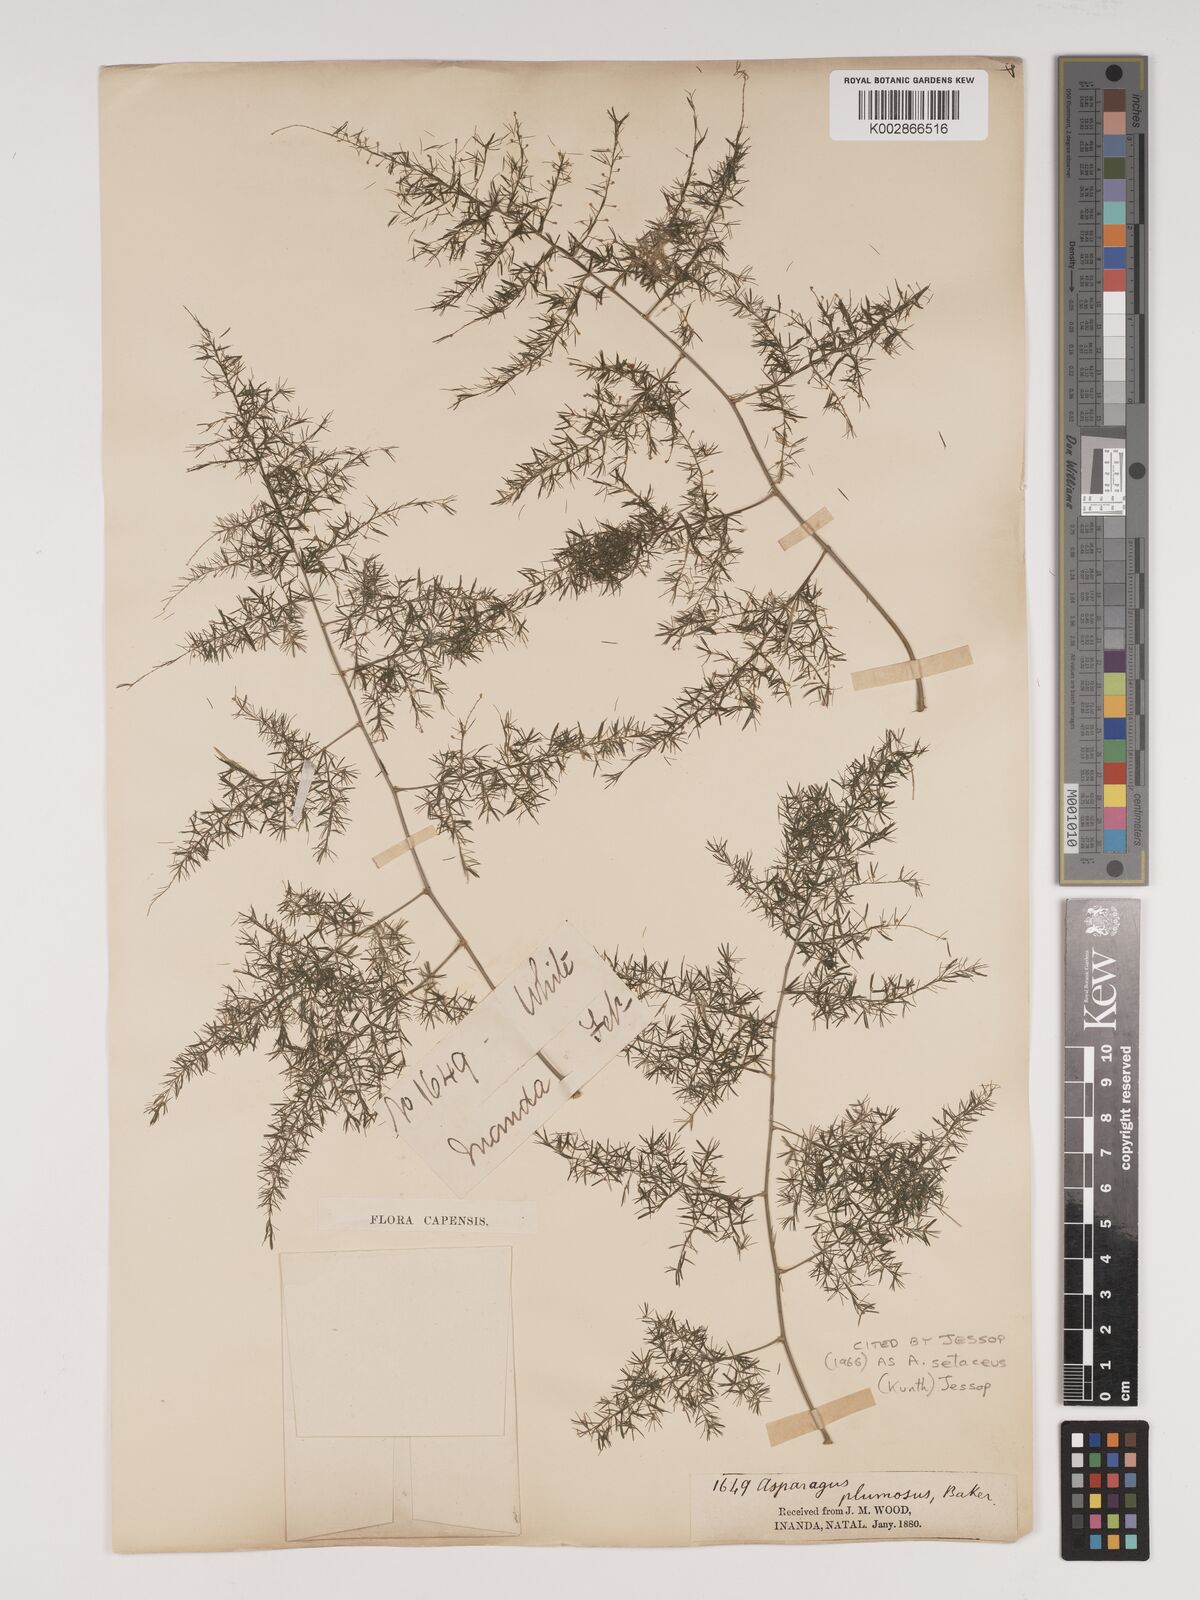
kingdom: Plantae
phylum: Tracheophyta
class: Liliopsida
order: Asparagales
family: Asparagaceae
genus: Asparagus
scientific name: Asparagus setaceus
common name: Common asparagus fern
